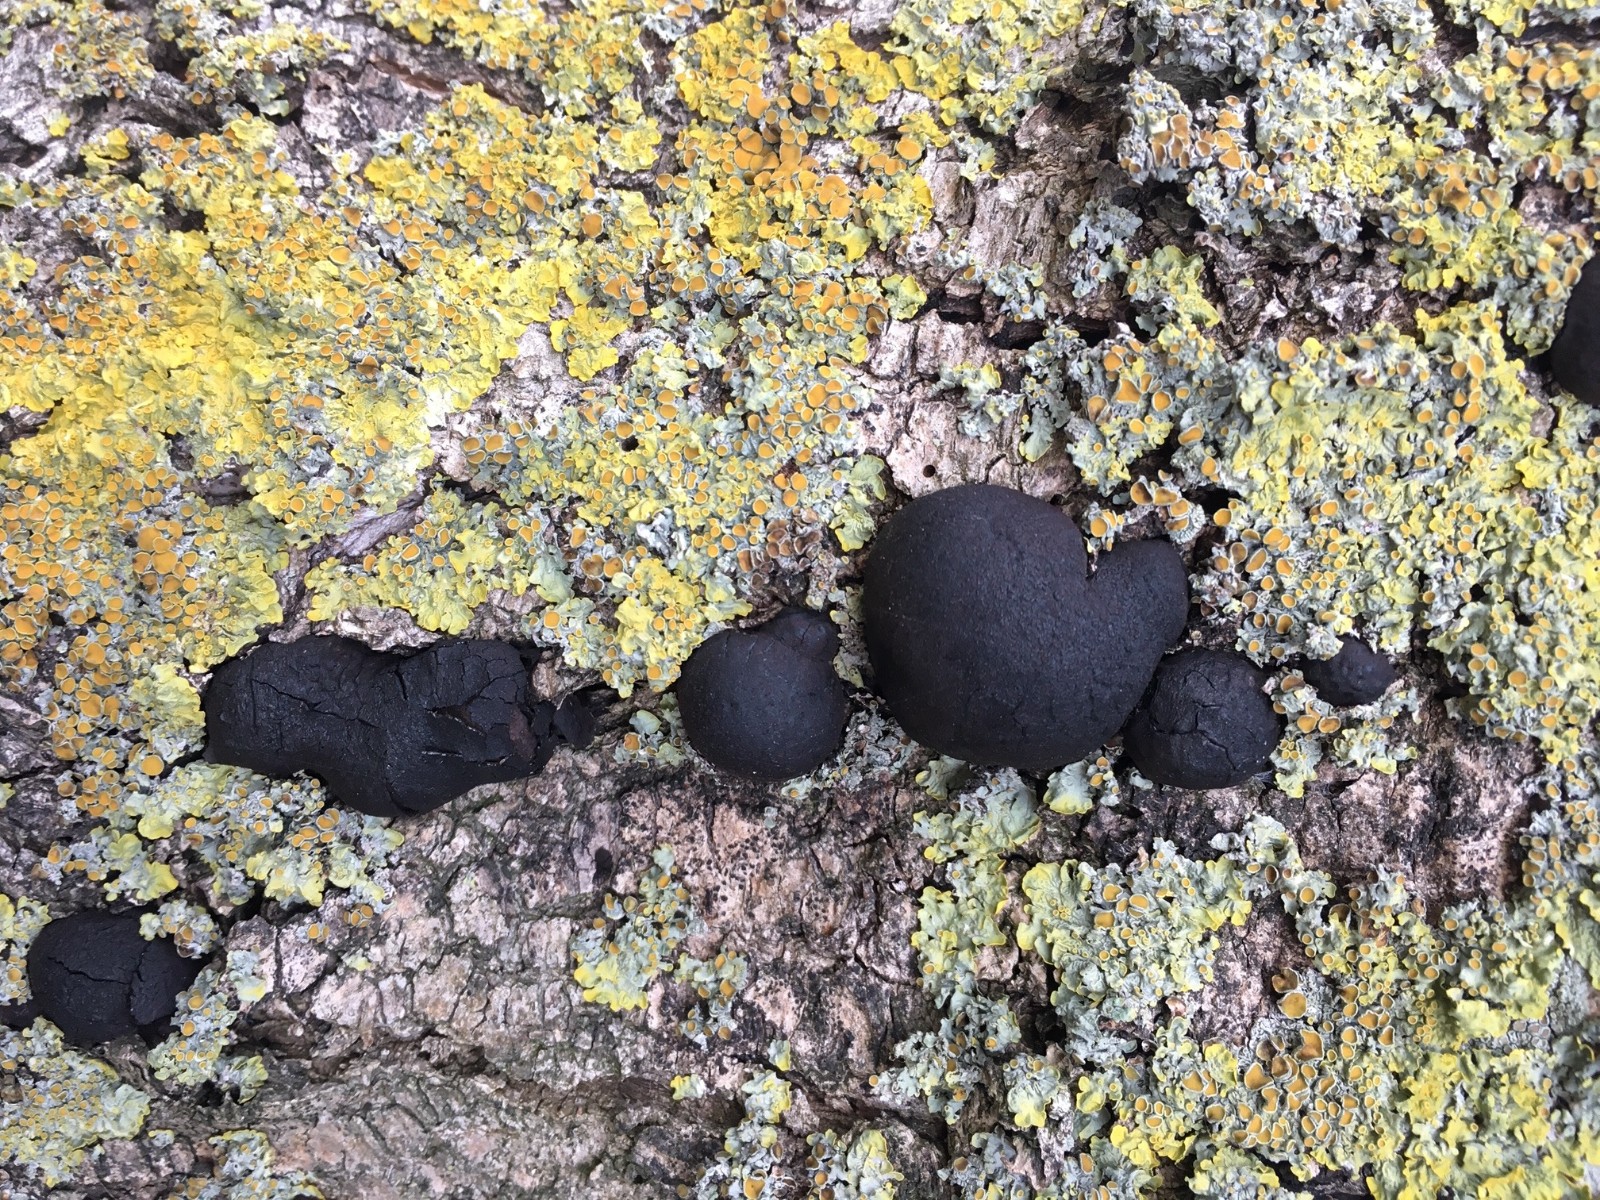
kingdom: Fungi
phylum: Ascomycota
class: Sordariomycetes
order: Xylariales
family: Hypoxylaceae
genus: Daldinia
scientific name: Daldinia
